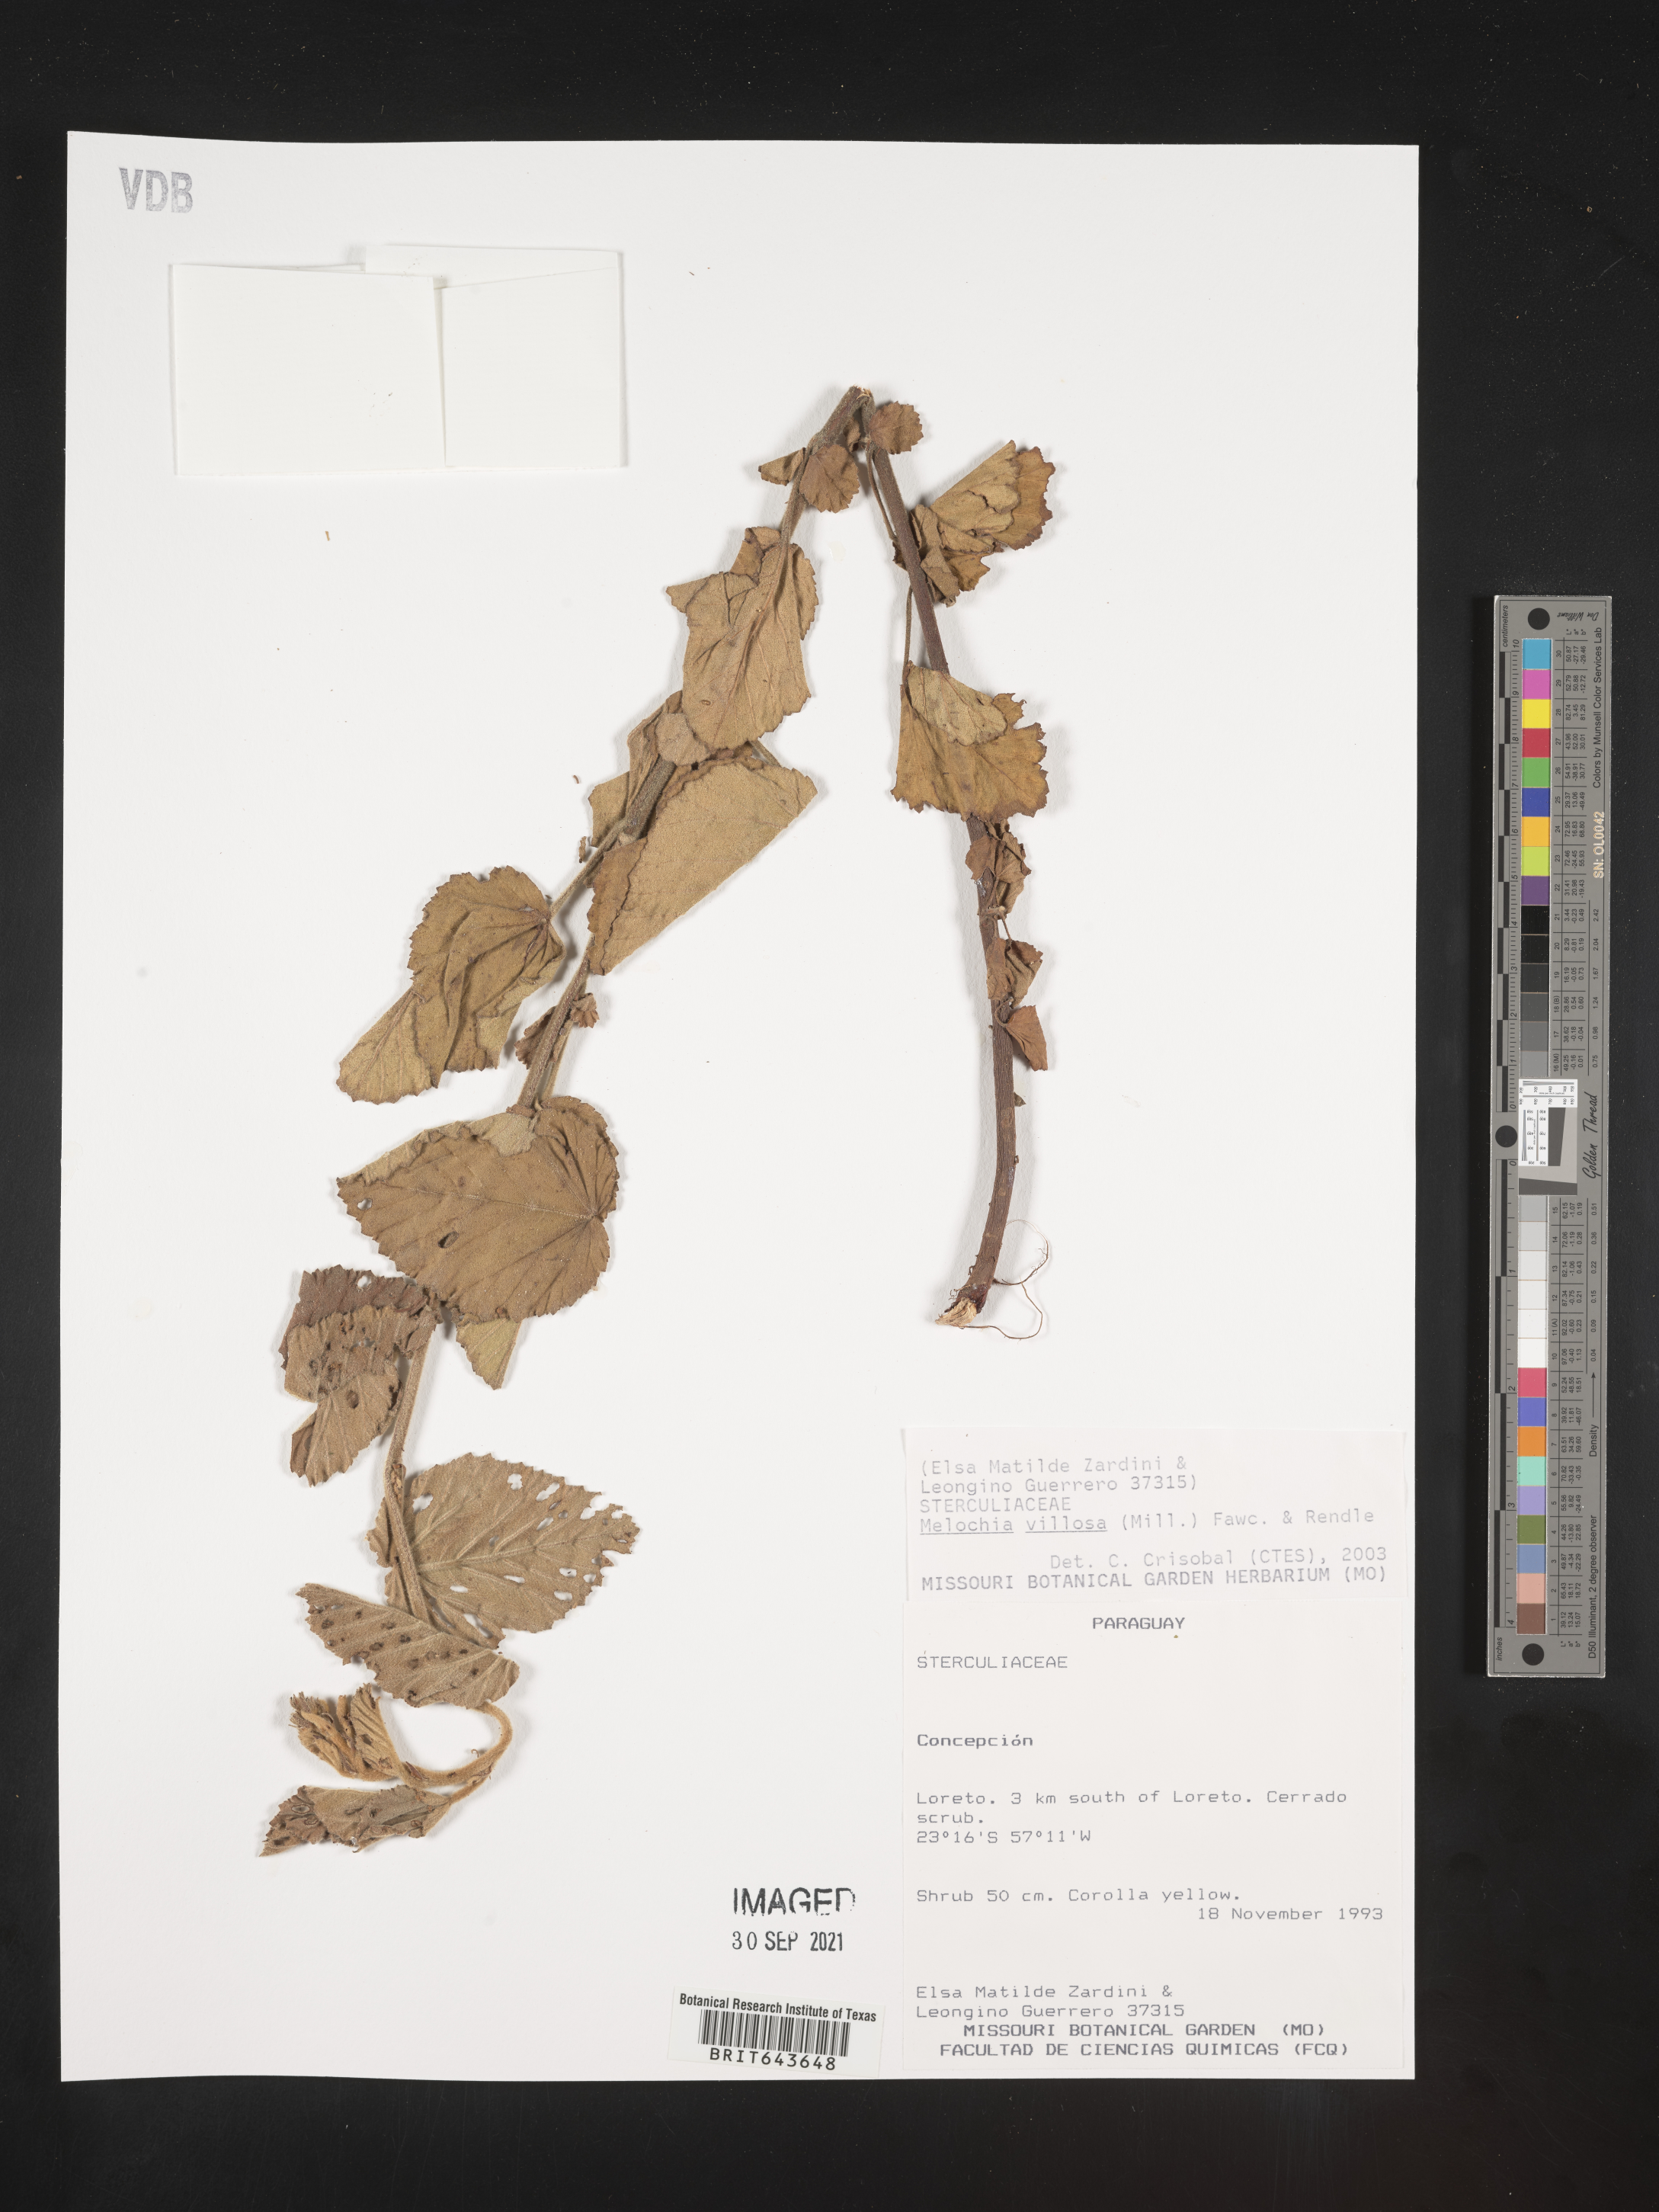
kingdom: Plantae
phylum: Tracheophyta
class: Magnoliopsida
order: Malvales
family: Malvaceae
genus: Melochia
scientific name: Melochia
